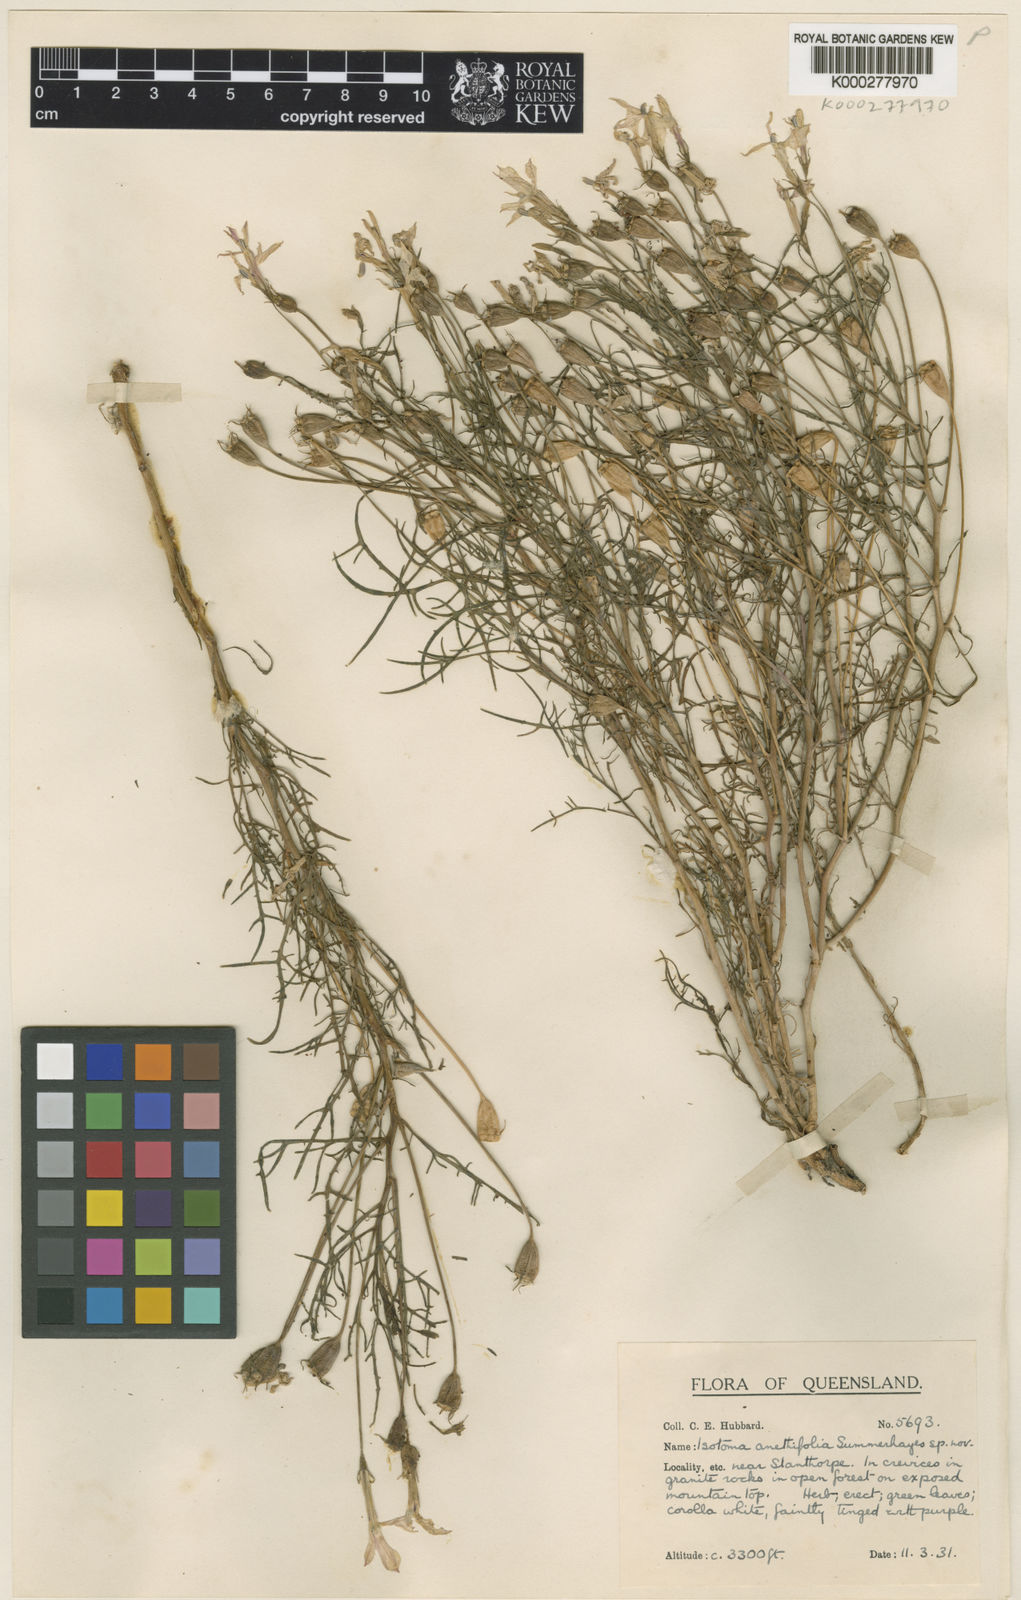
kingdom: Plantae
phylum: Tracheophyta
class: Magnoliopsida
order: Asterales
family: Campanulaceae
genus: Lithotoma
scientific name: Lithotoma anethifolia
